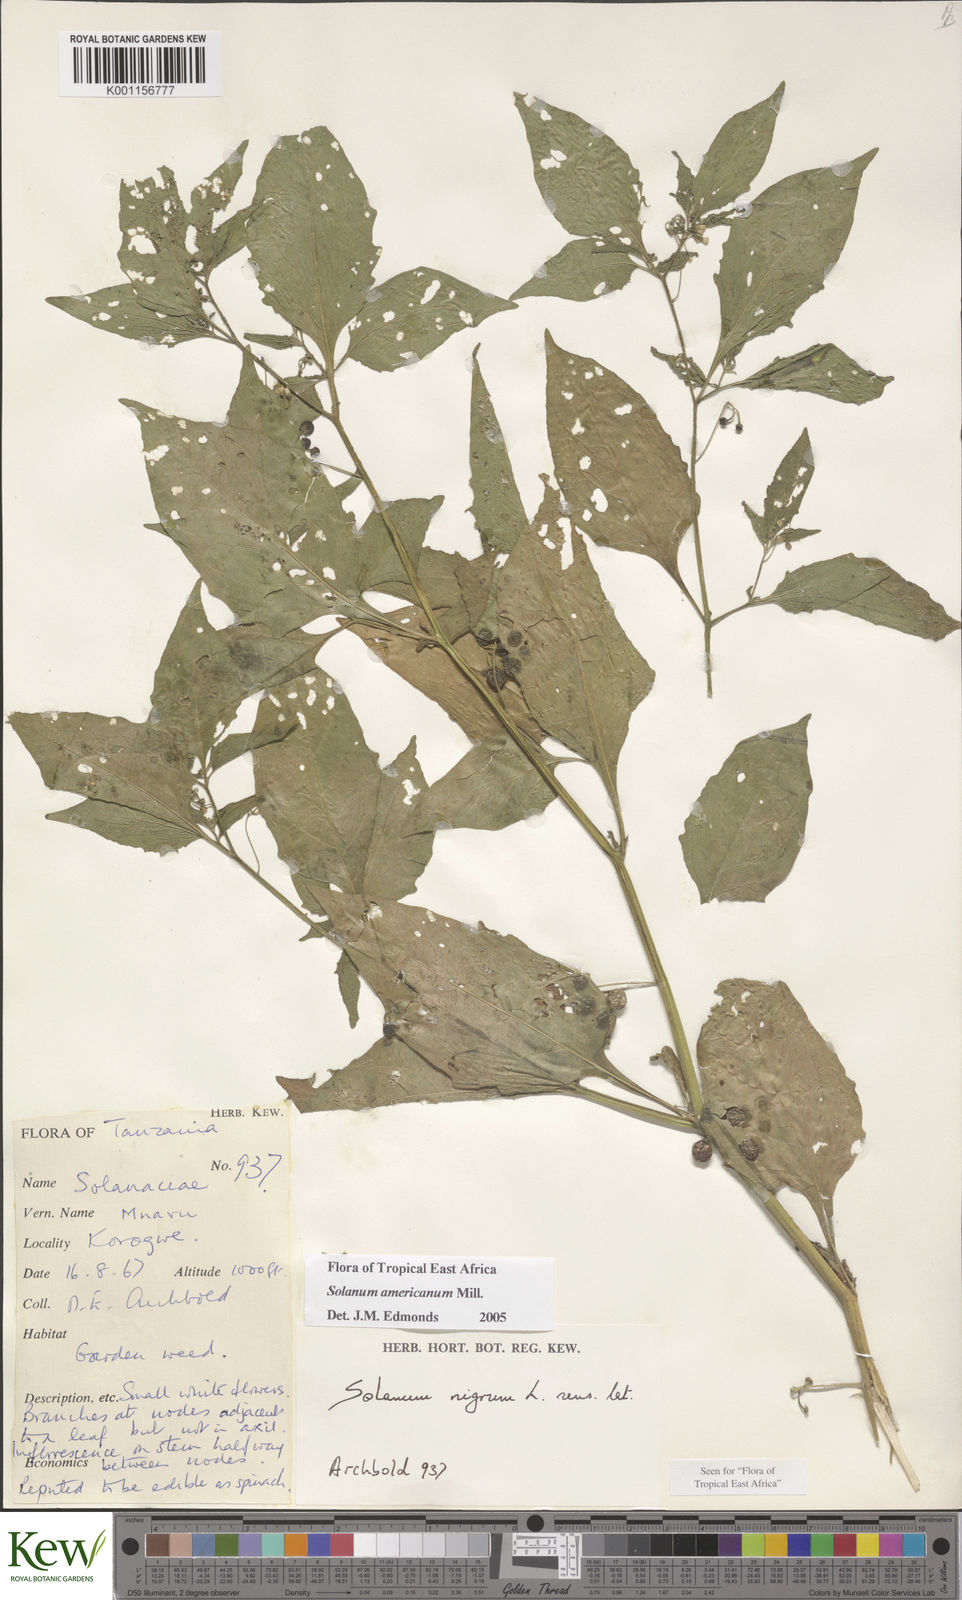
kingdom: Plantae
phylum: Tracheophyta
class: Magnoliopsida
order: Solanales
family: Solanaceae
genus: Solanum
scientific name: Solanum americanum
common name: American black nightshade
